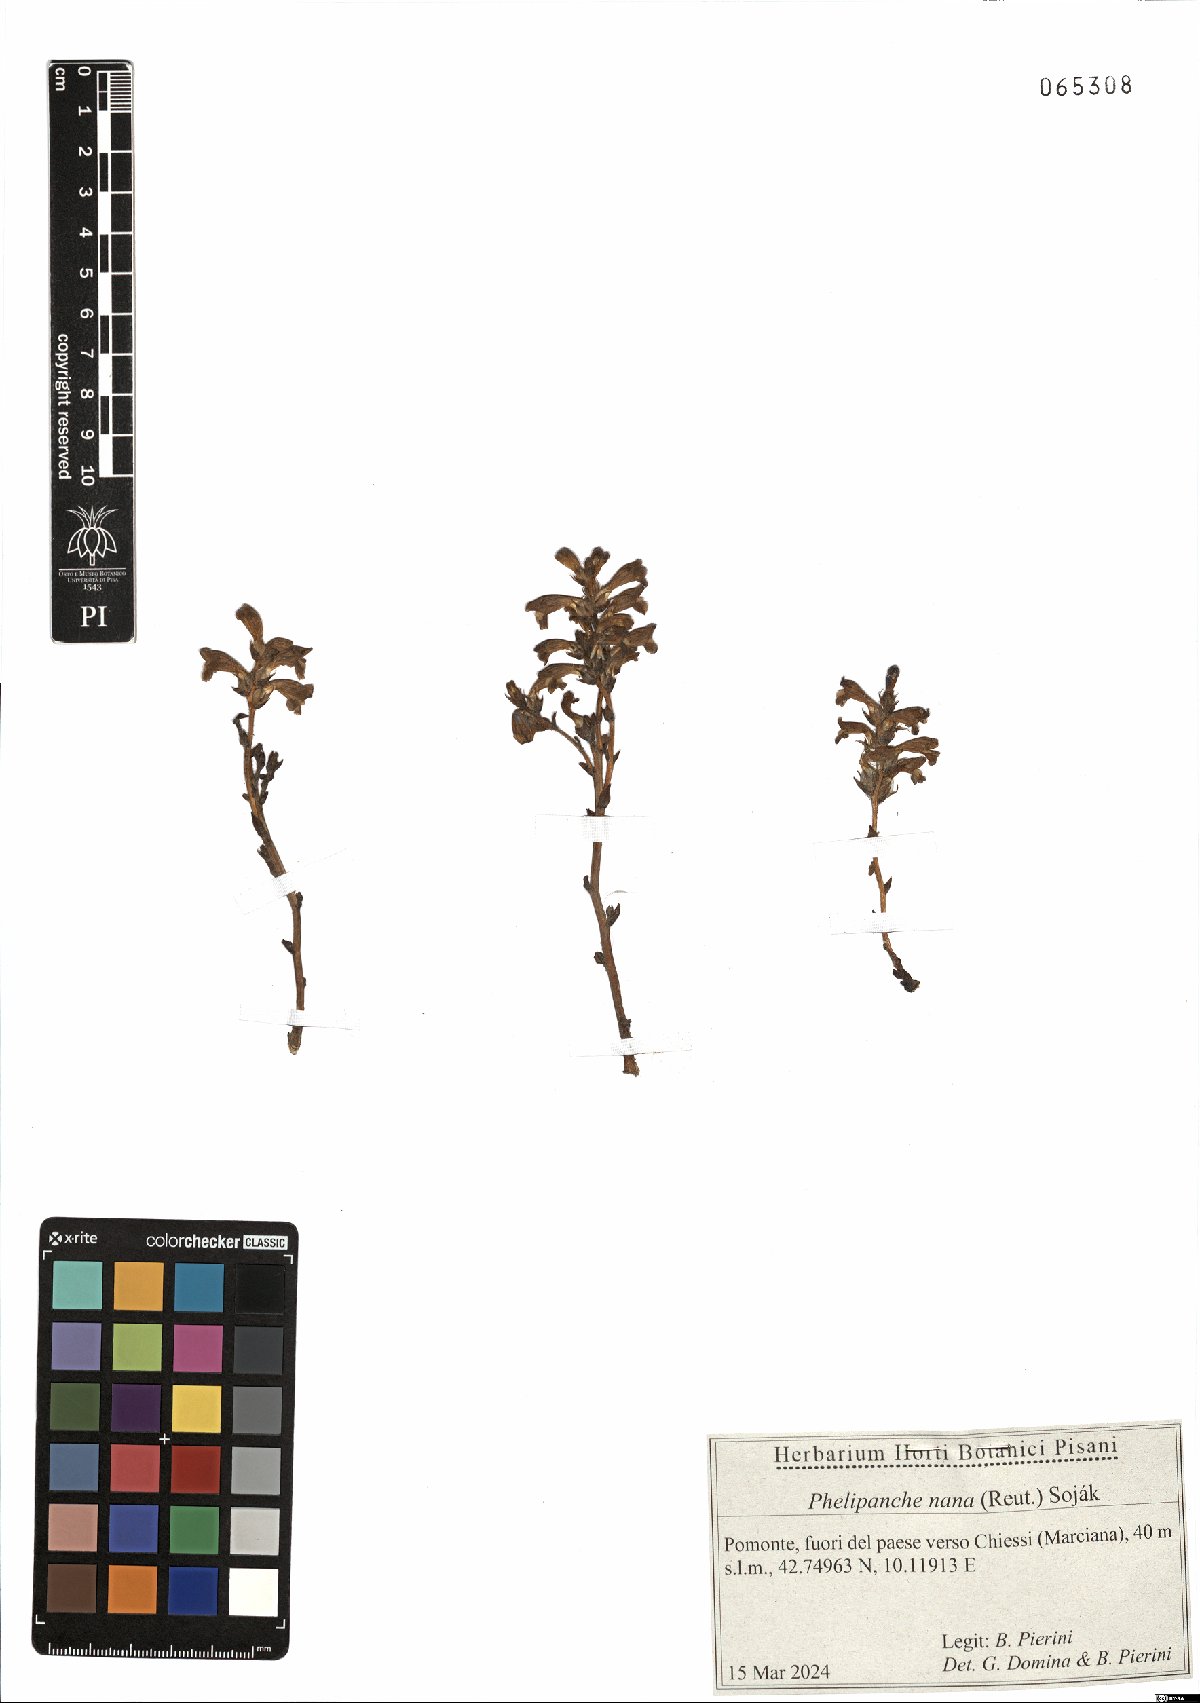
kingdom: Plantae
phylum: Tracheophyta
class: Magnoliopsida
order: Lamiales
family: Orobanchaceae
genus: Phelipanche
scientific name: Phelipanche mutelii
